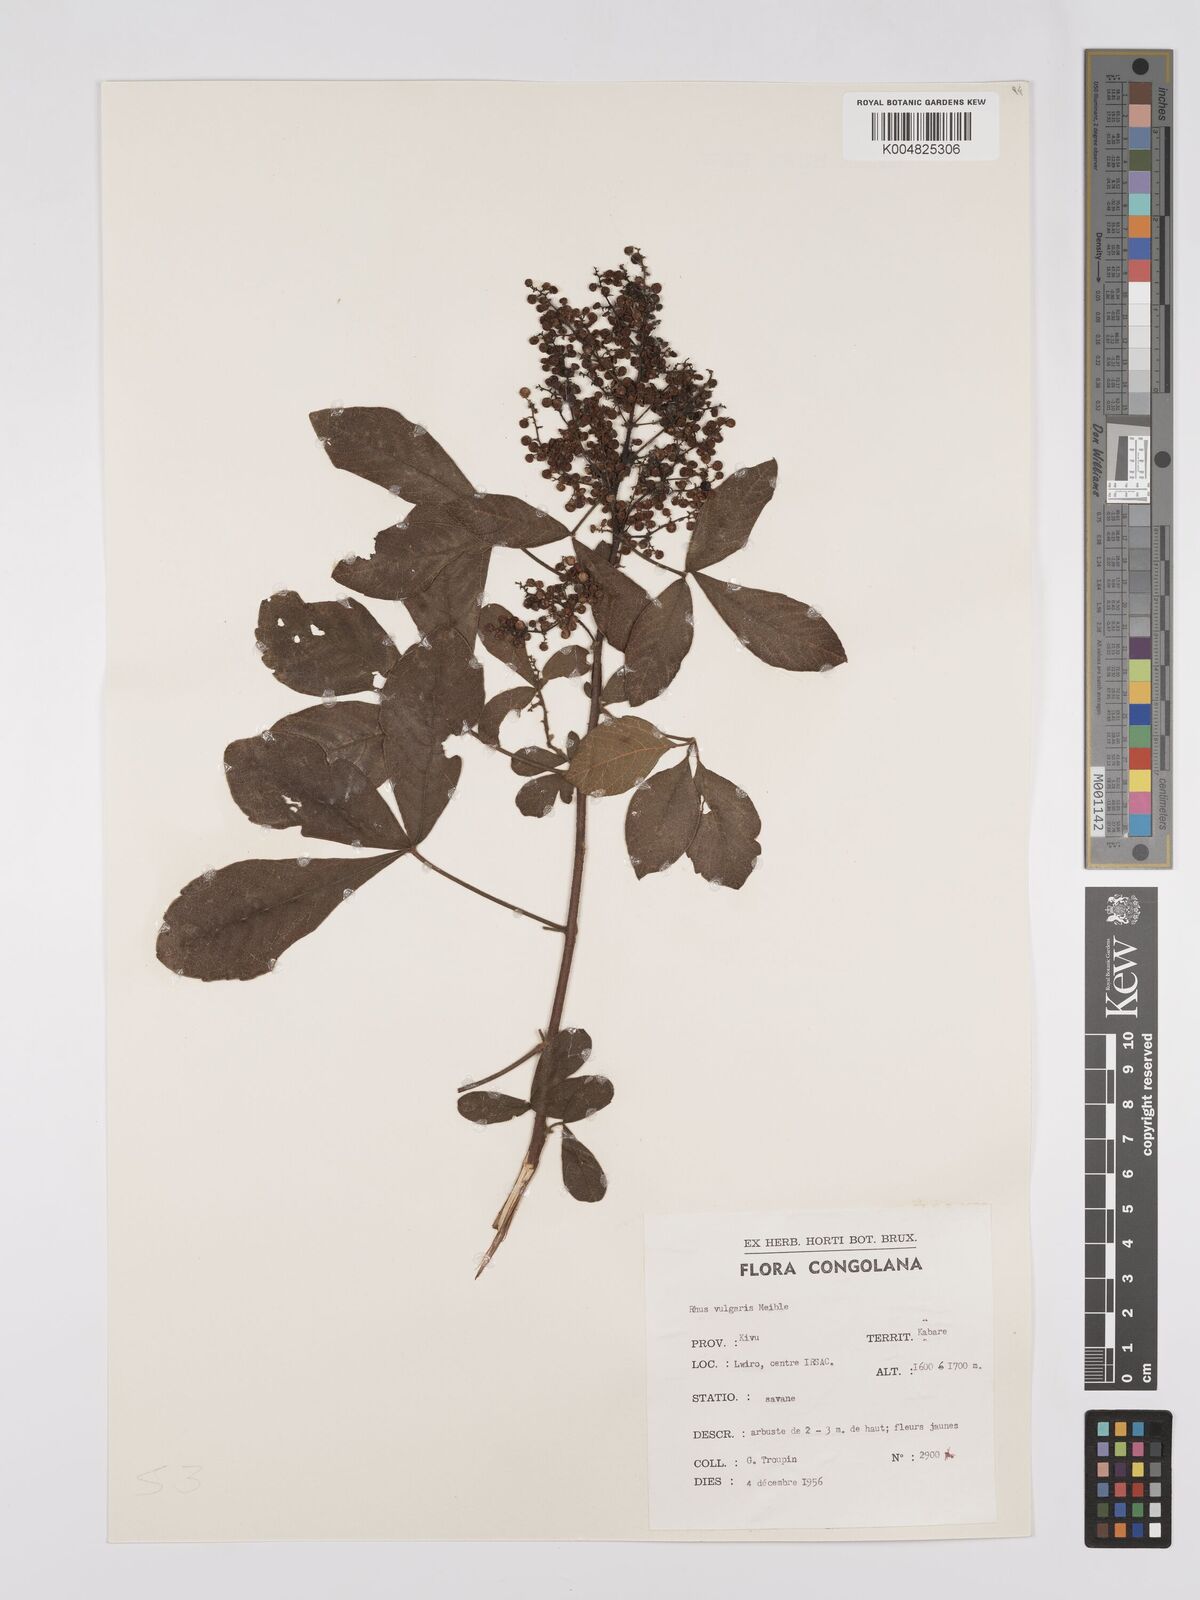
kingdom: Plantae
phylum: Tracheophyta
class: Magnoliopsida
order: Sapindales
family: Anacardiaceae
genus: Searsia
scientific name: Searsia pyroides
